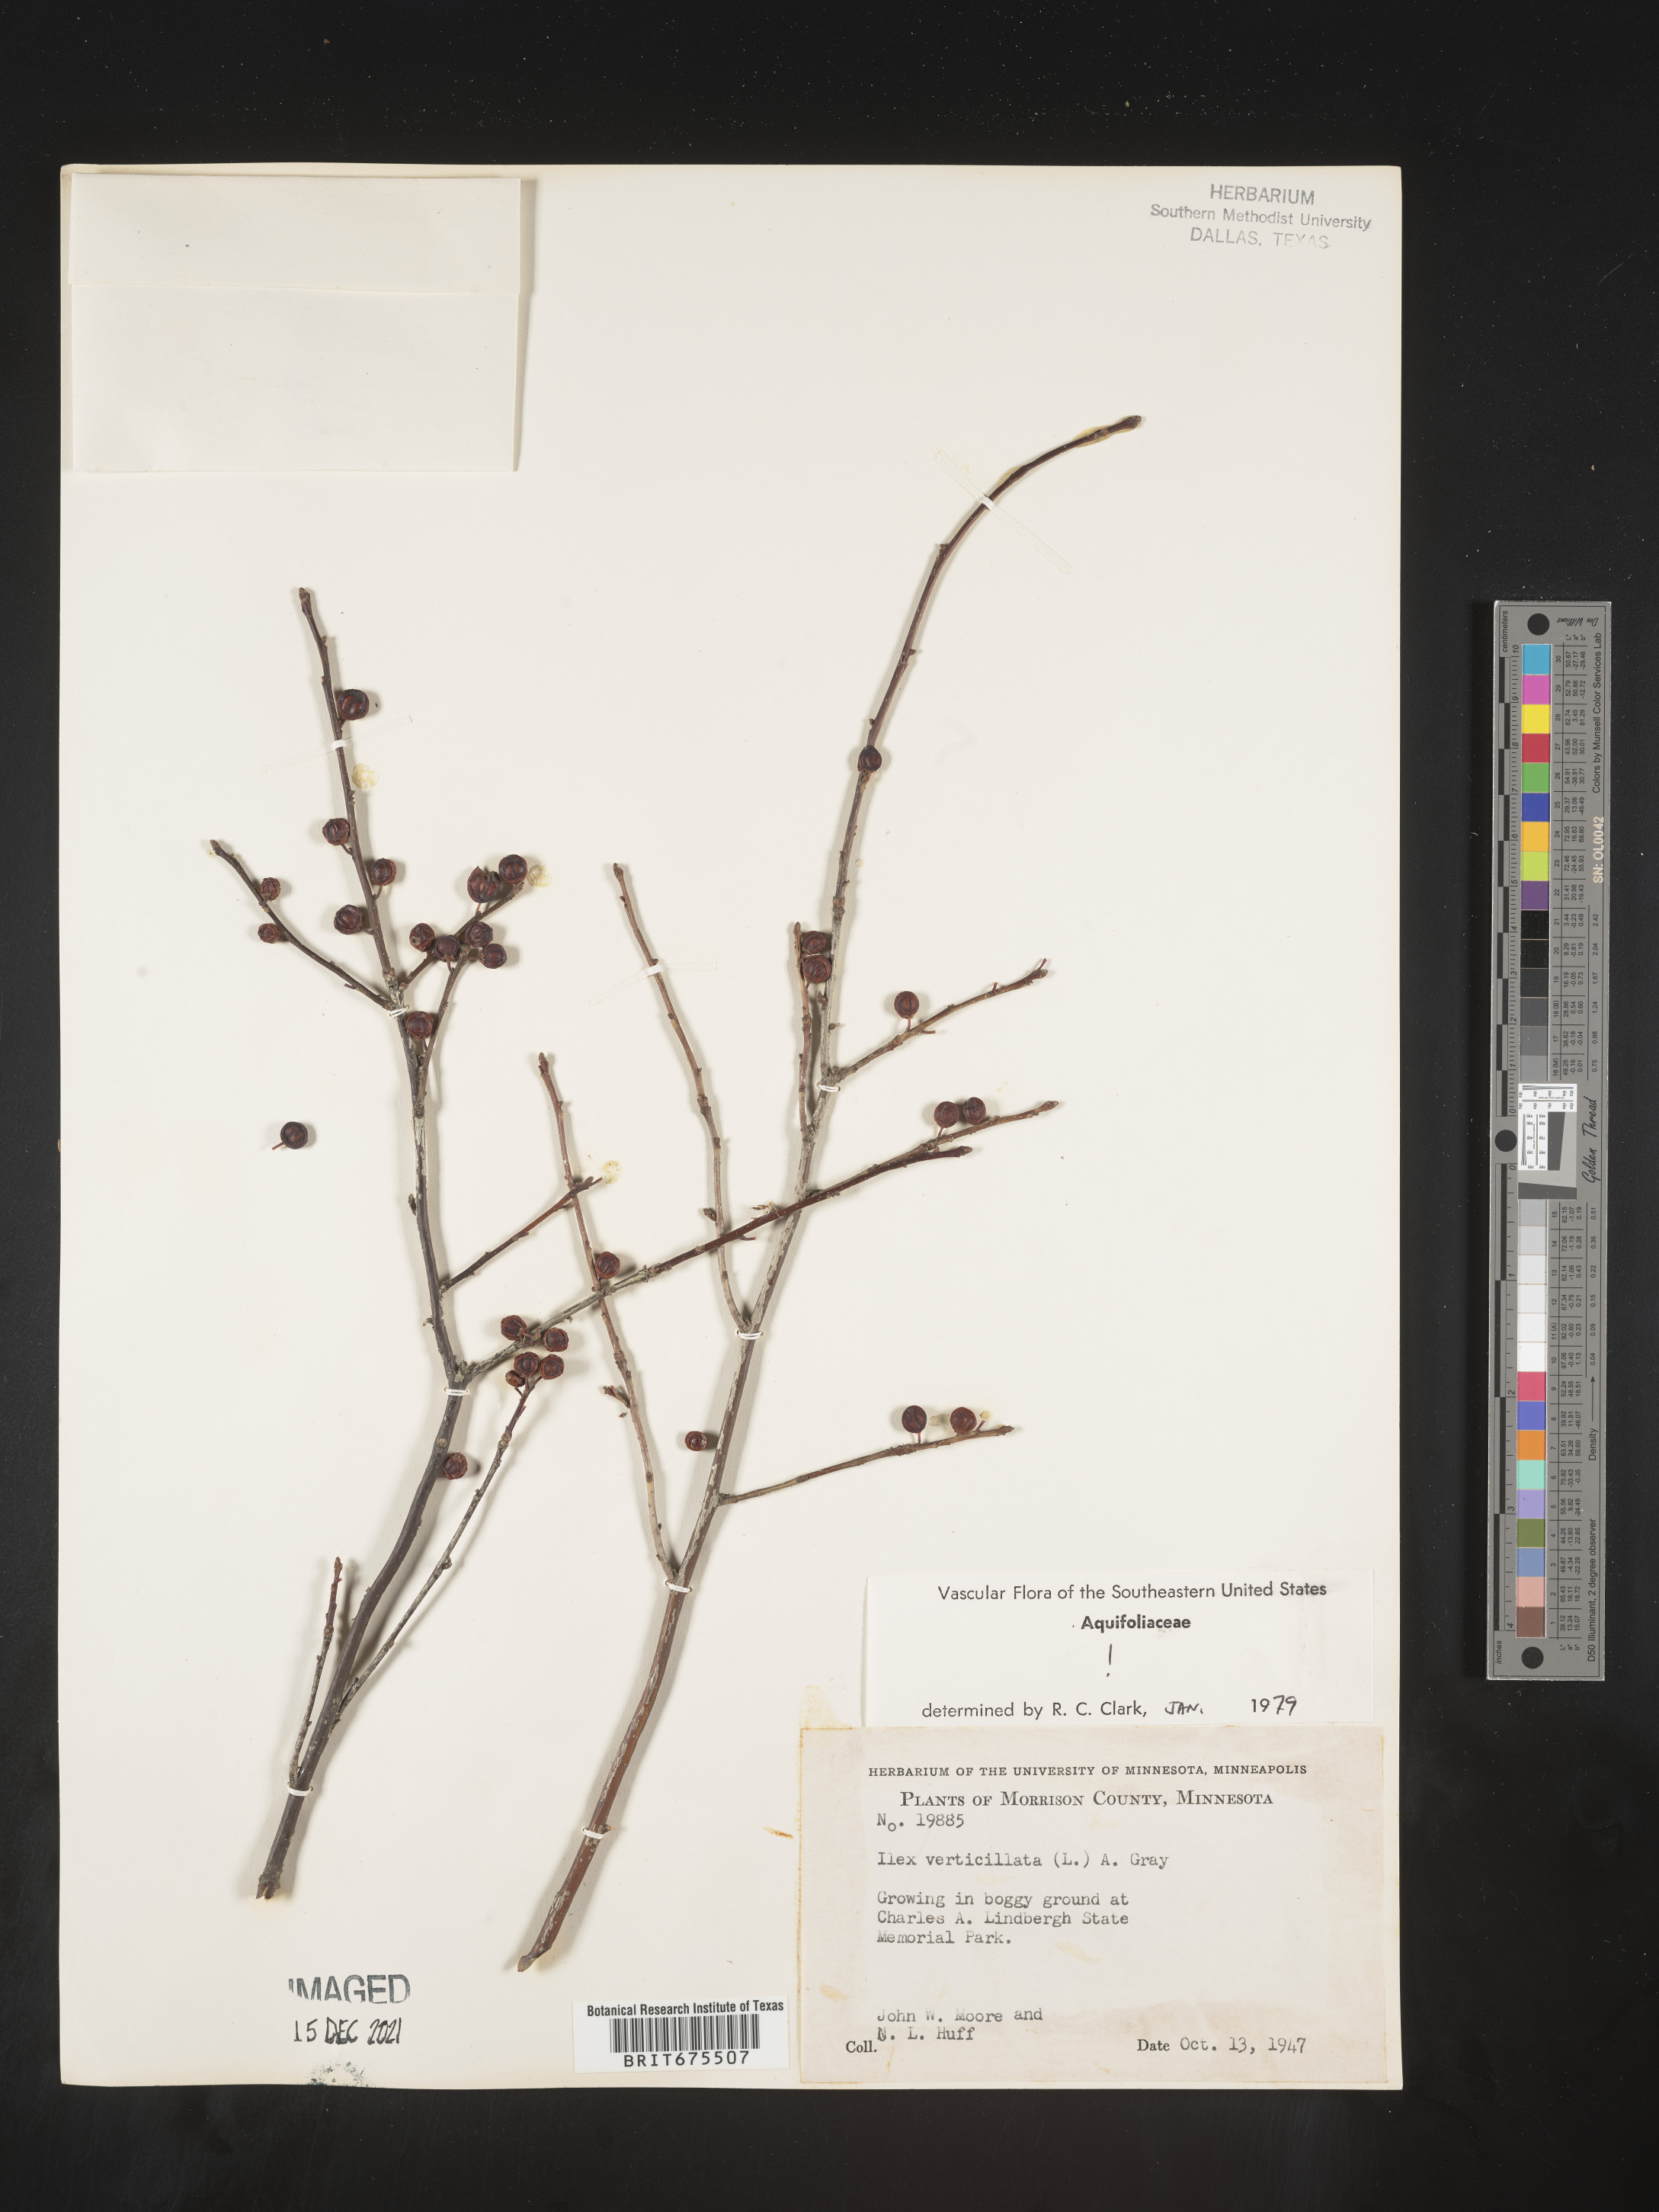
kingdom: Plantae
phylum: Tracheophyta
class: Magnoliopsida
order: Aquifoliales
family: Aquifoliaceae
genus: Ilex
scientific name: Ilex verticillata
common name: Virginia winterberry
